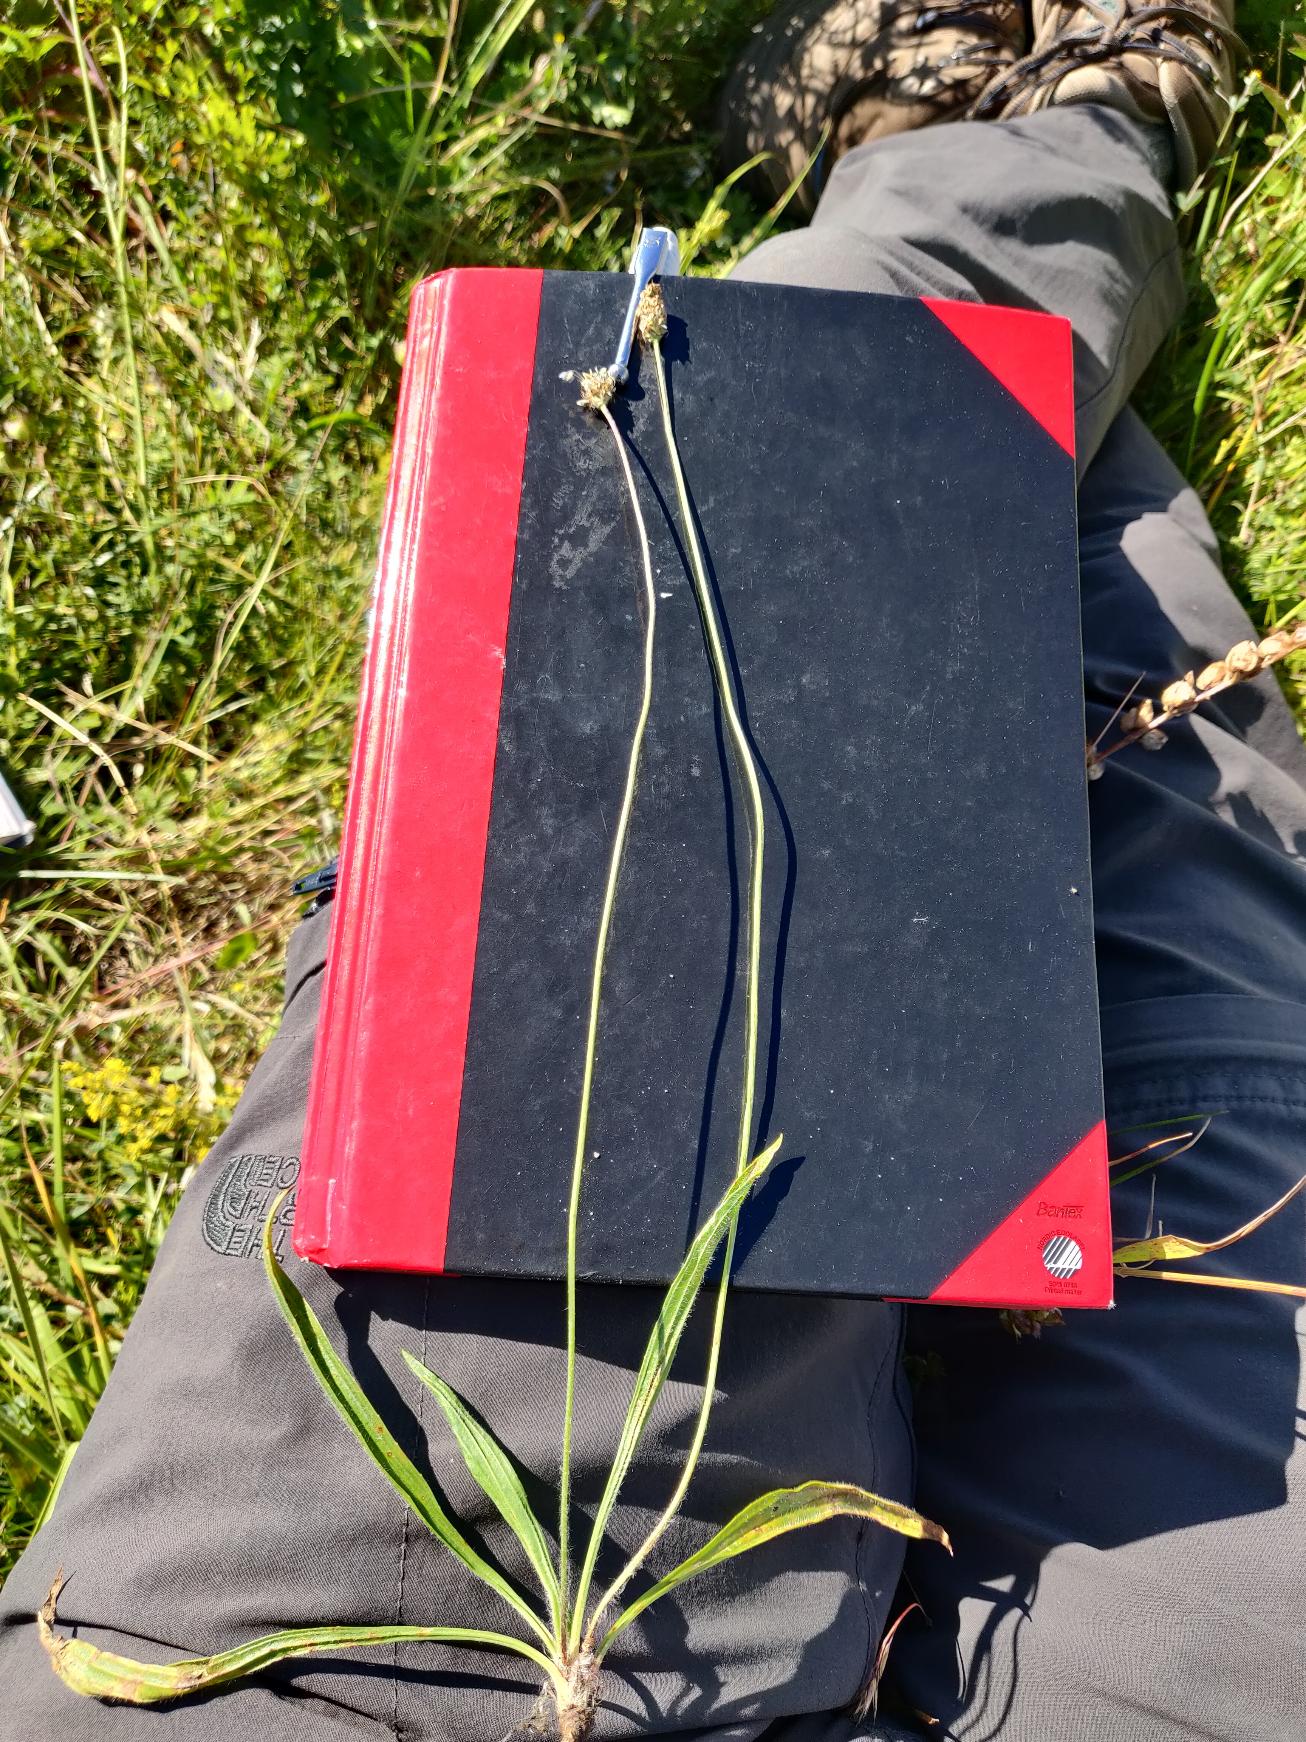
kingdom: Plantae
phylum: Tracheophyta
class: Magnoliopsida
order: Lamiales
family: Plantaginaceae
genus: Plantago
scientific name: Plantago lanceolata
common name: Lancet-vejbred
